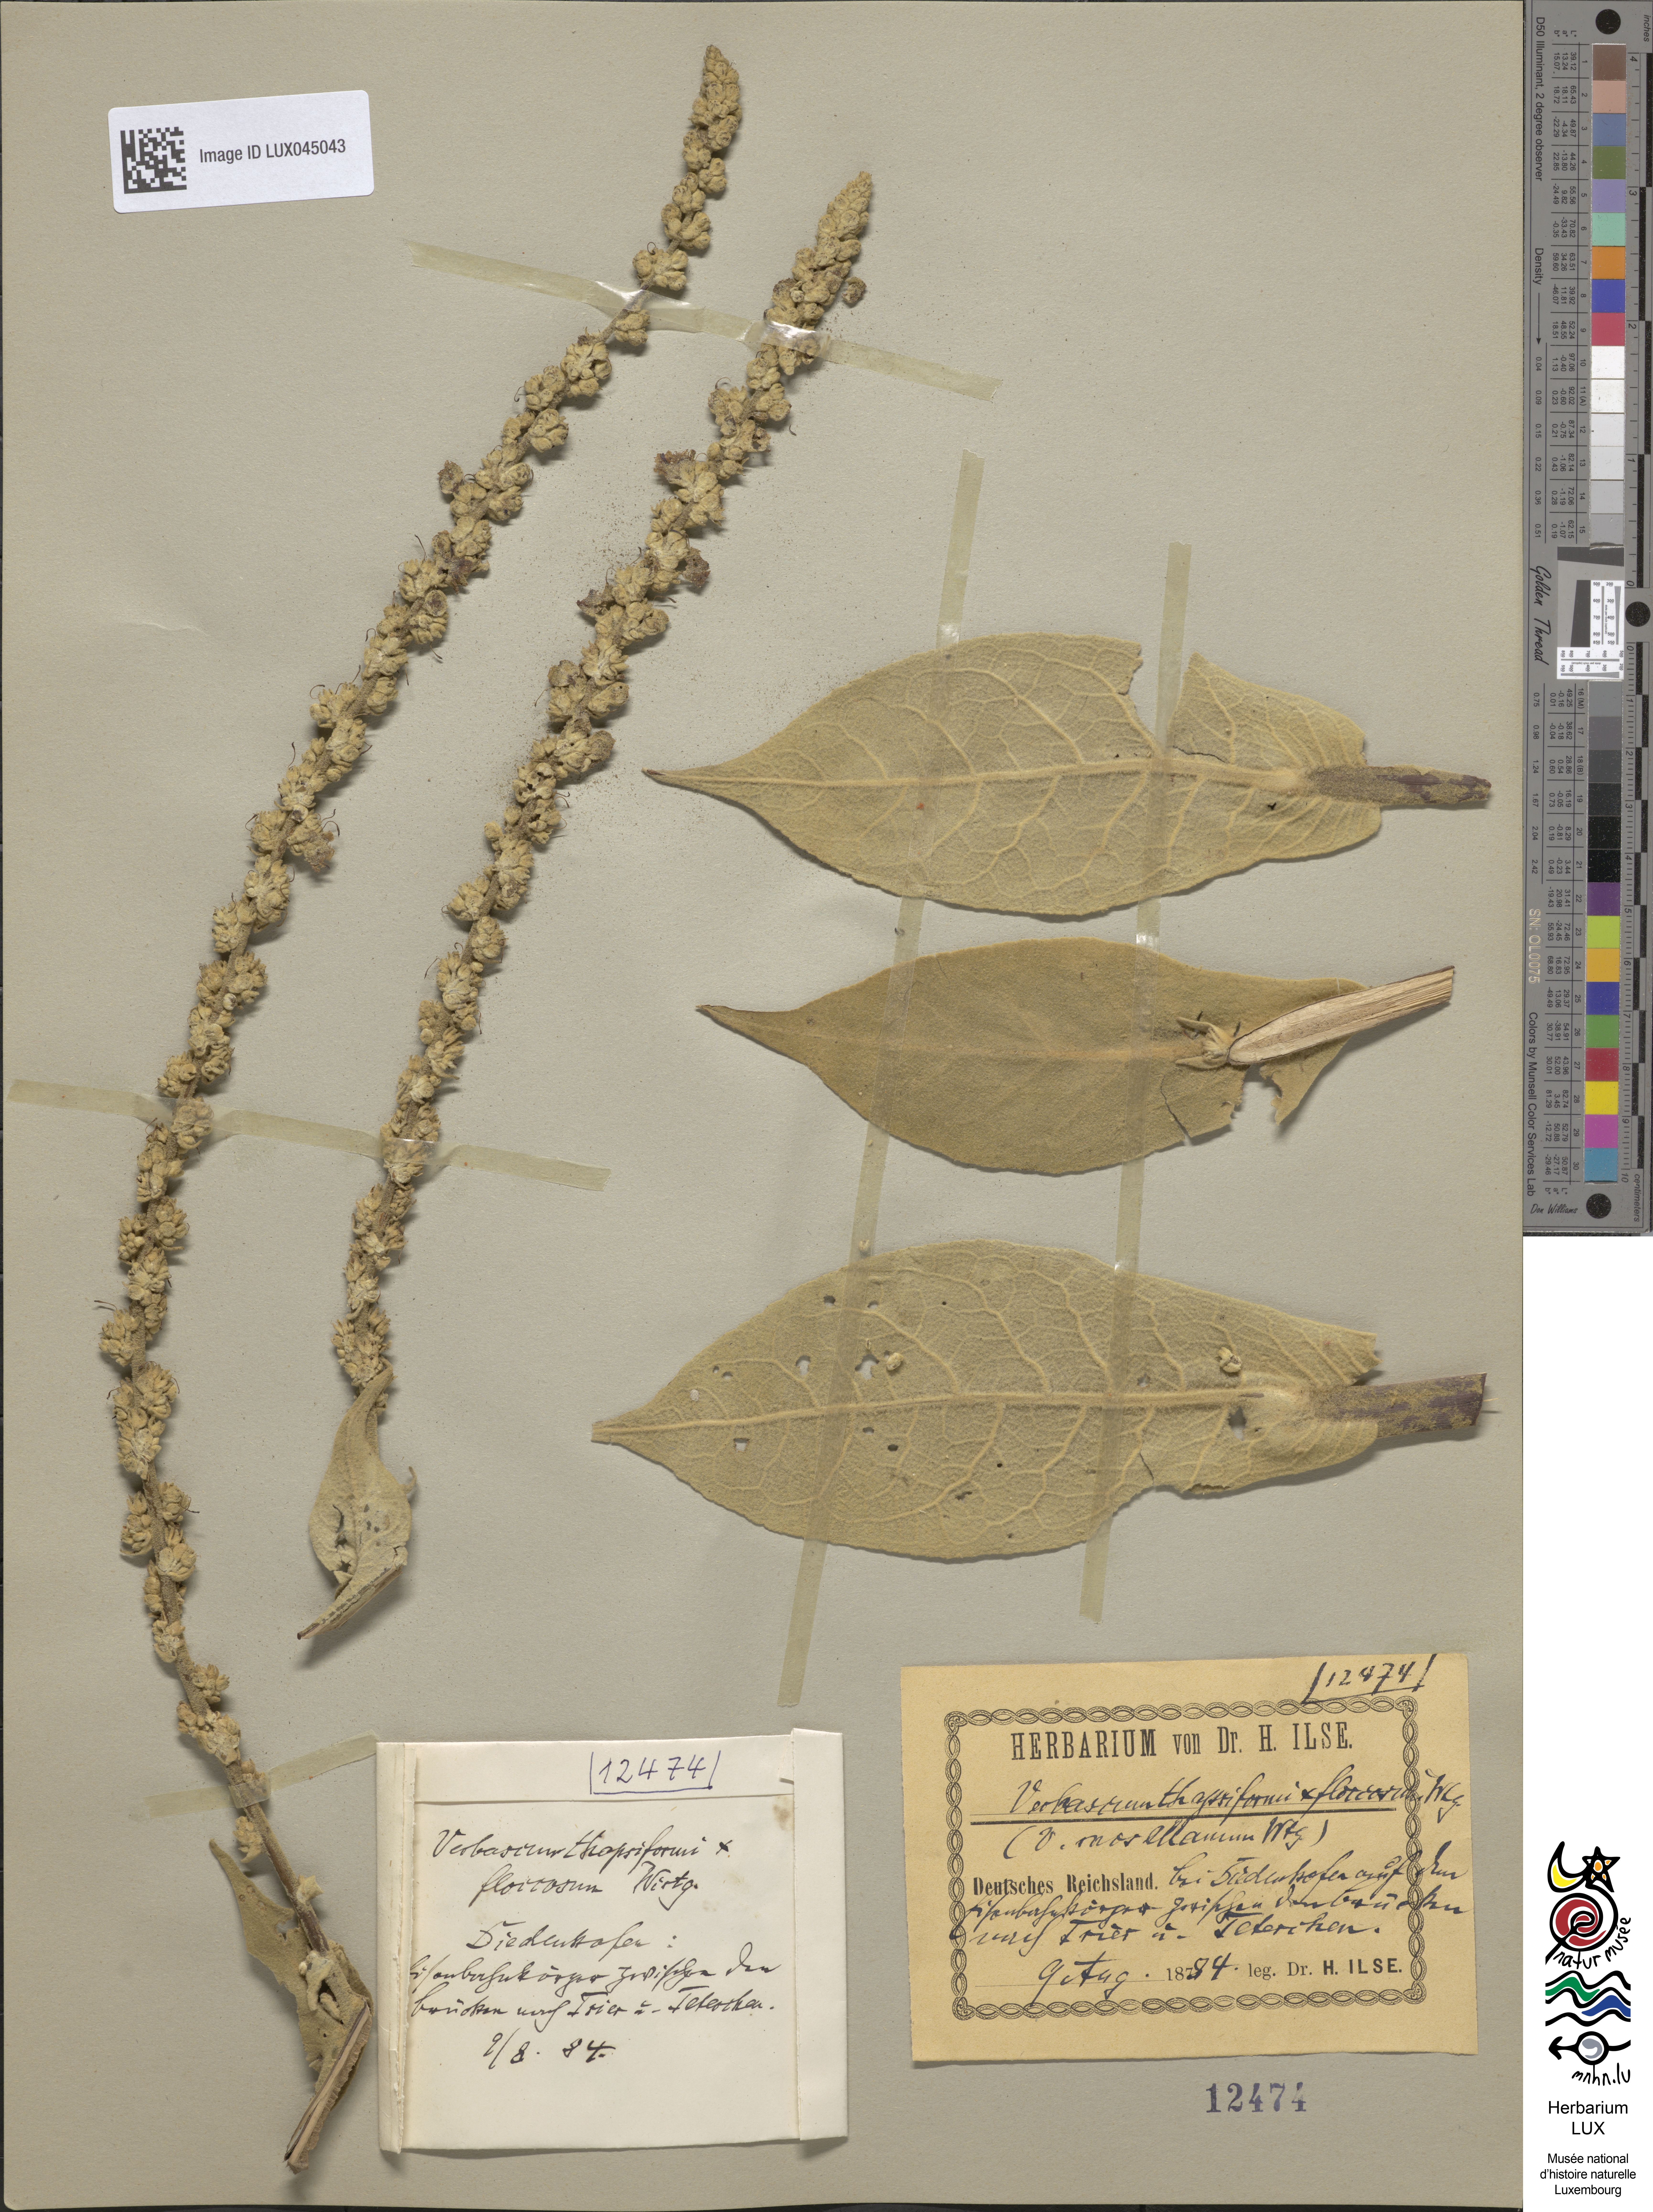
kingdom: Plantae
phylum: Tracheophyta
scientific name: Tracheophyta
